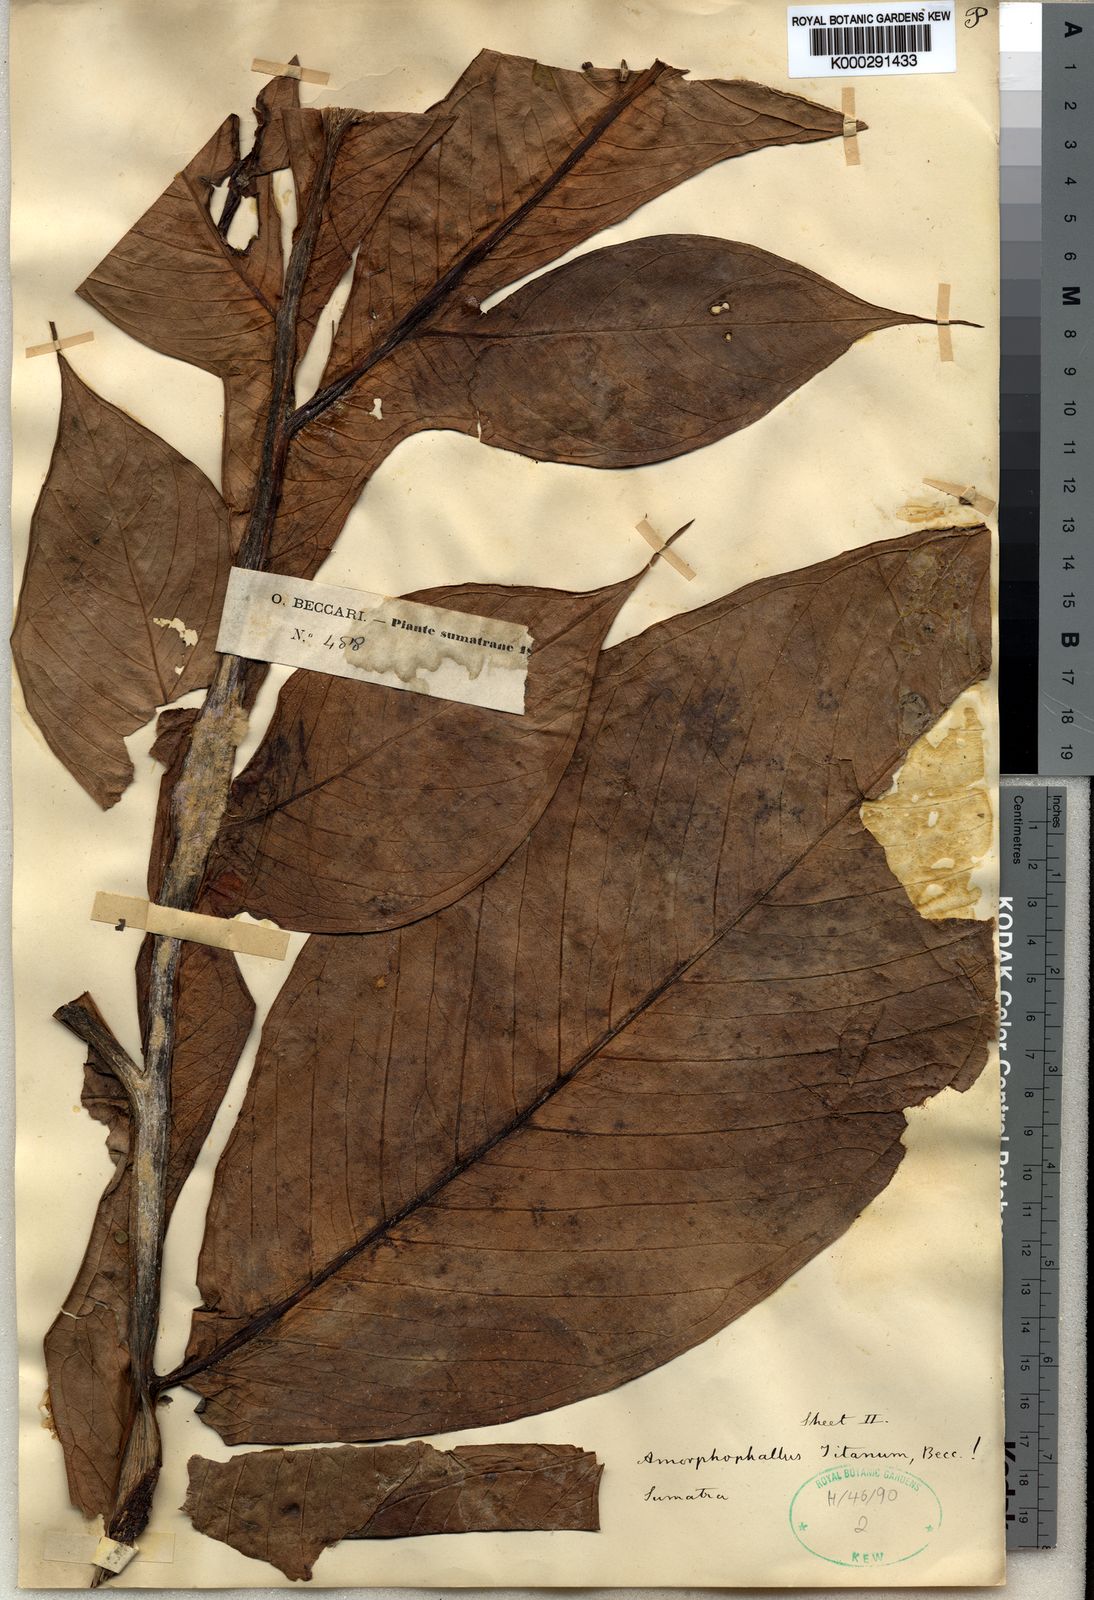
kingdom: Plantae
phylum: Tracheophyta
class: Liliopsida
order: Alismatales
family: Araceae
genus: Amorphophallus
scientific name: Amorphophallus titanum
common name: Titan arum
